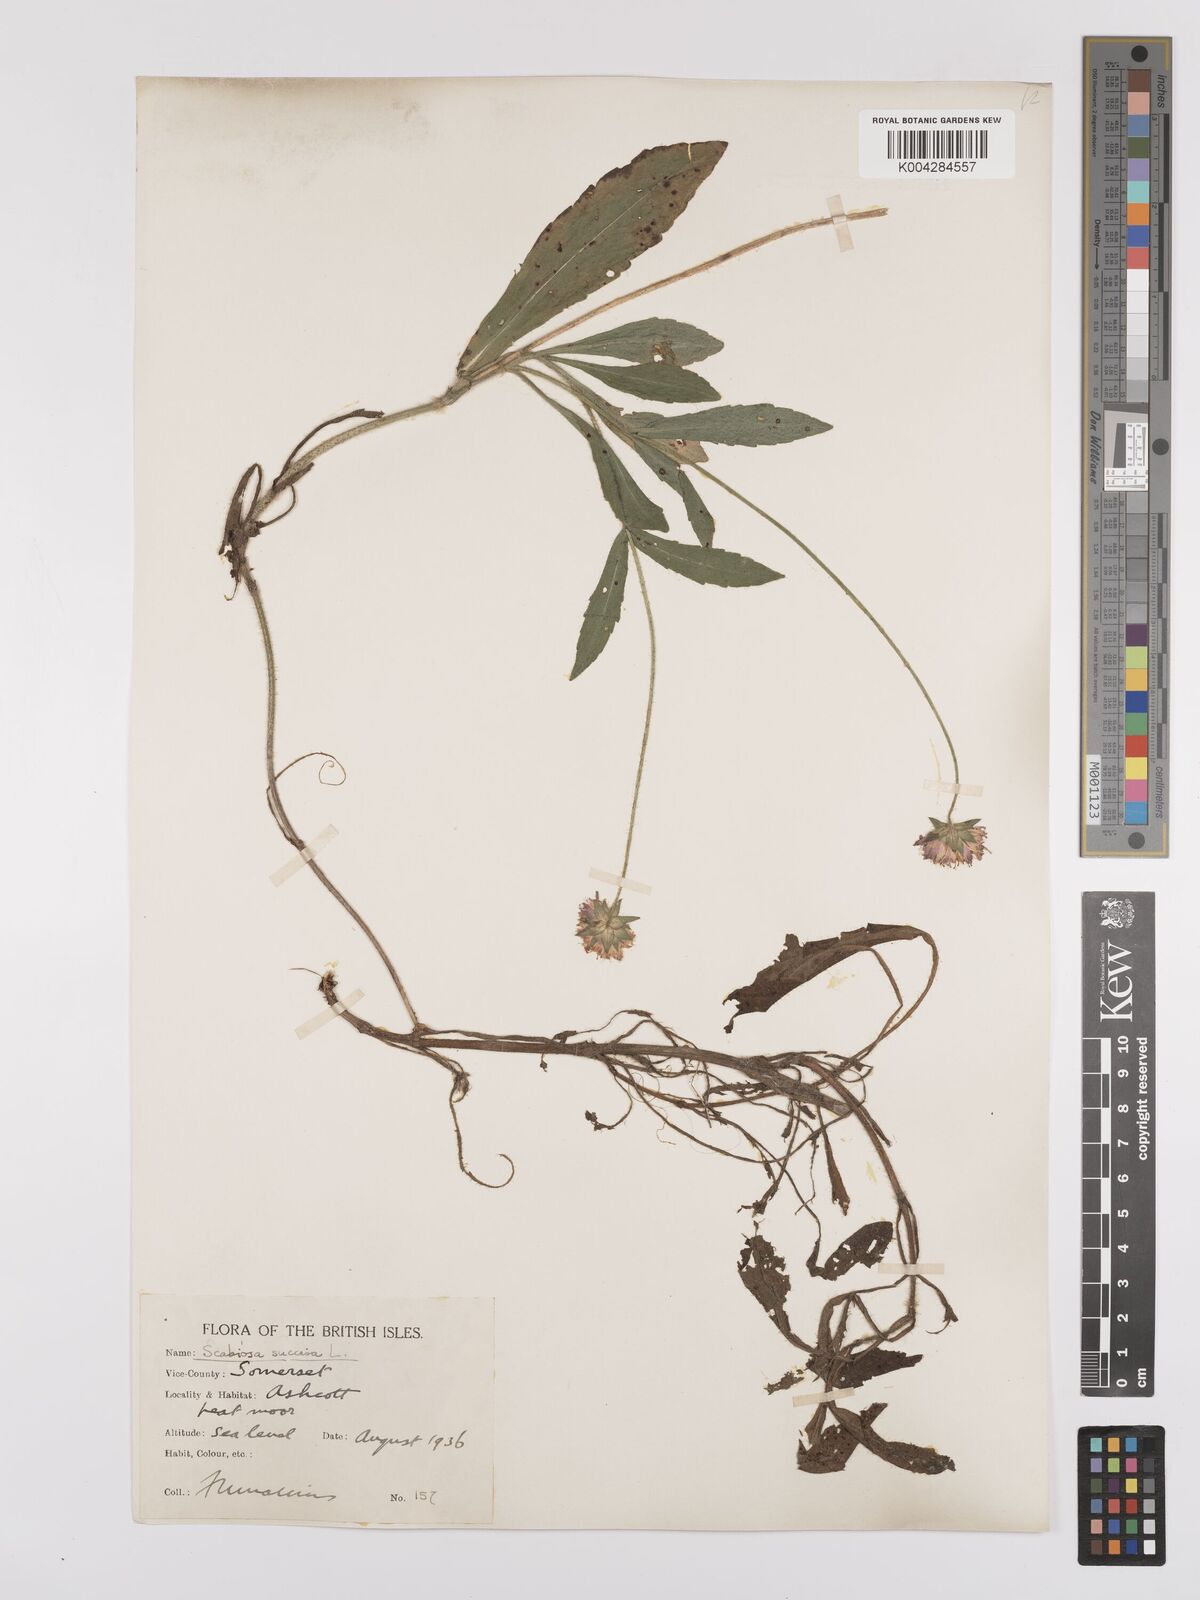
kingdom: Plantae
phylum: Tracheophyta
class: Magnoliopsida
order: Dipsacales
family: Caprifoliaceae
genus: Succisa
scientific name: Succisa pratensis
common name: Devil's-bit
